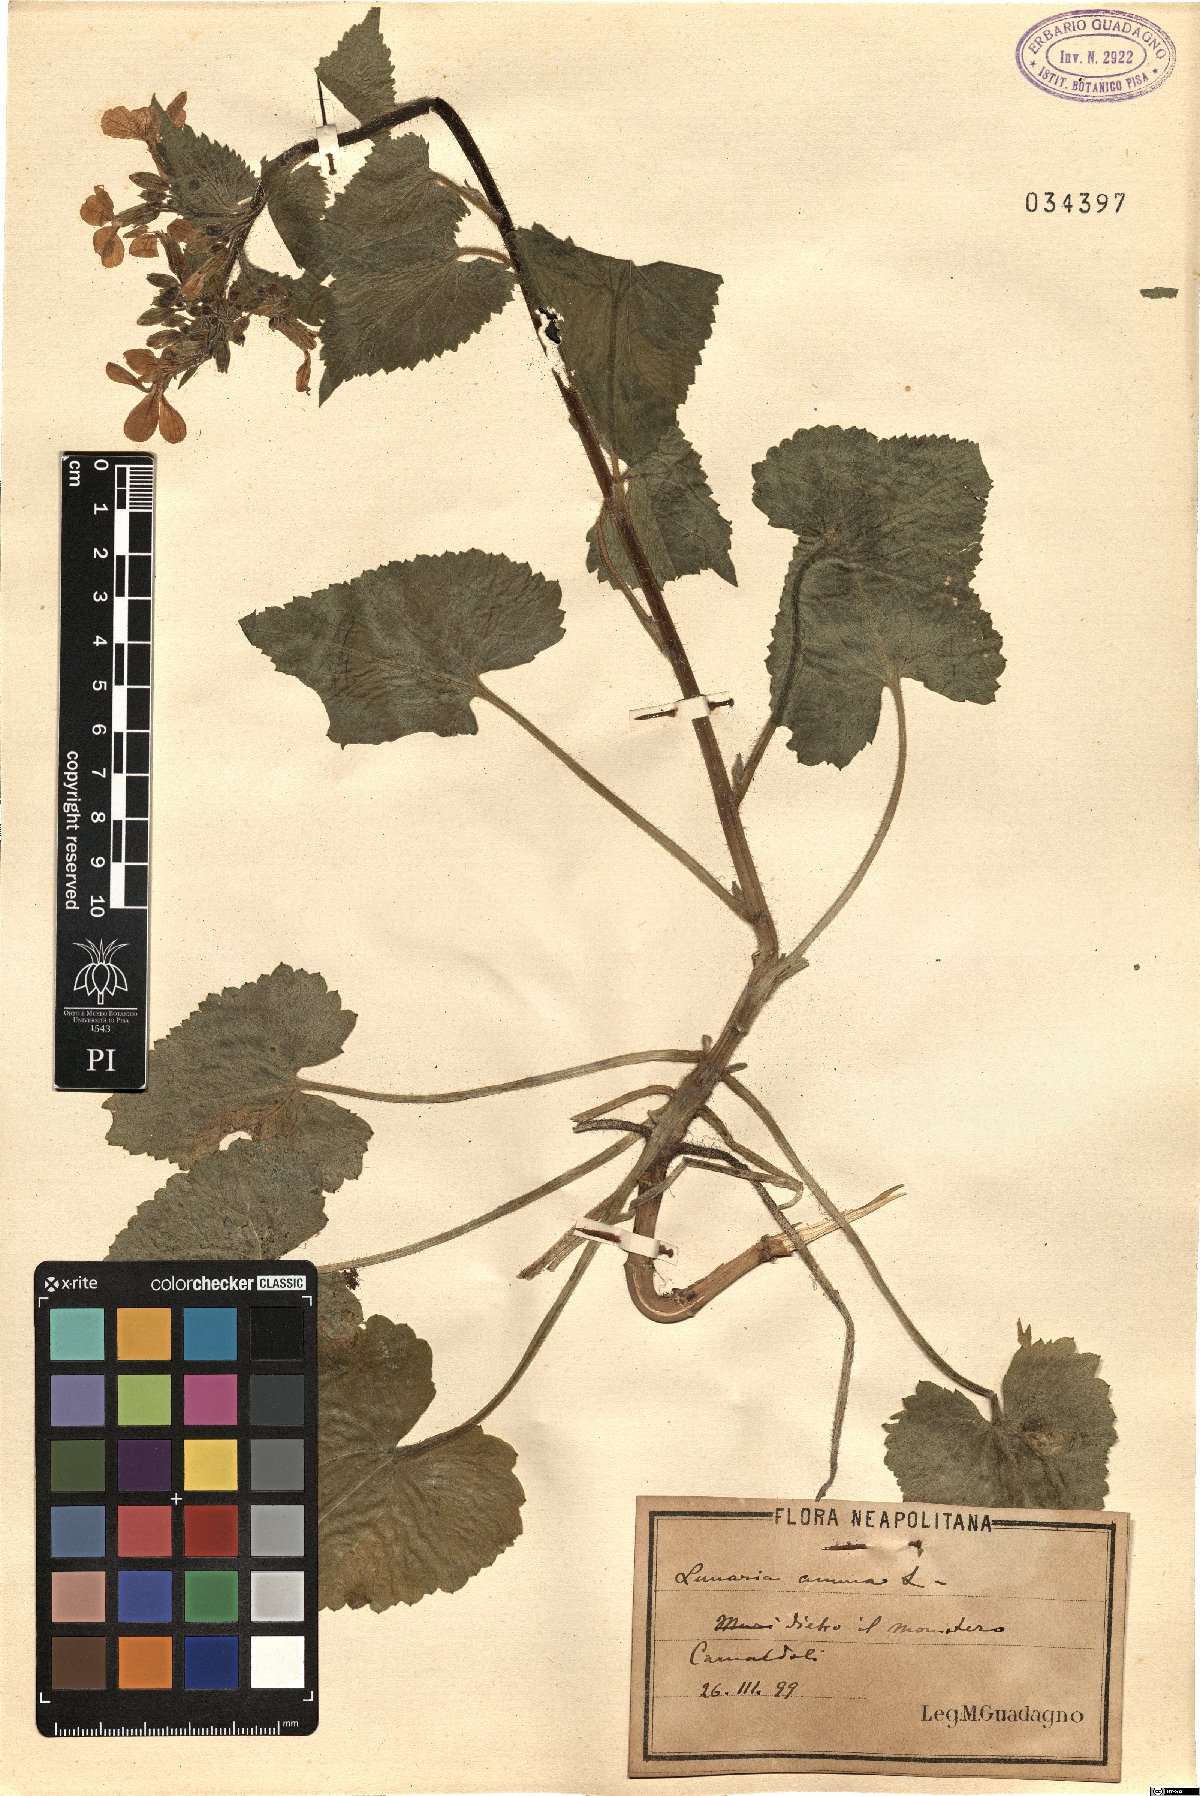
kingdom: Plantae
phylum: Tracheophyta
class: Magnoliopsida
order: Brassicales
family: Brassicaceae
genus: Lunaria
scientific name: Lunaria annua
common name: Honesty
